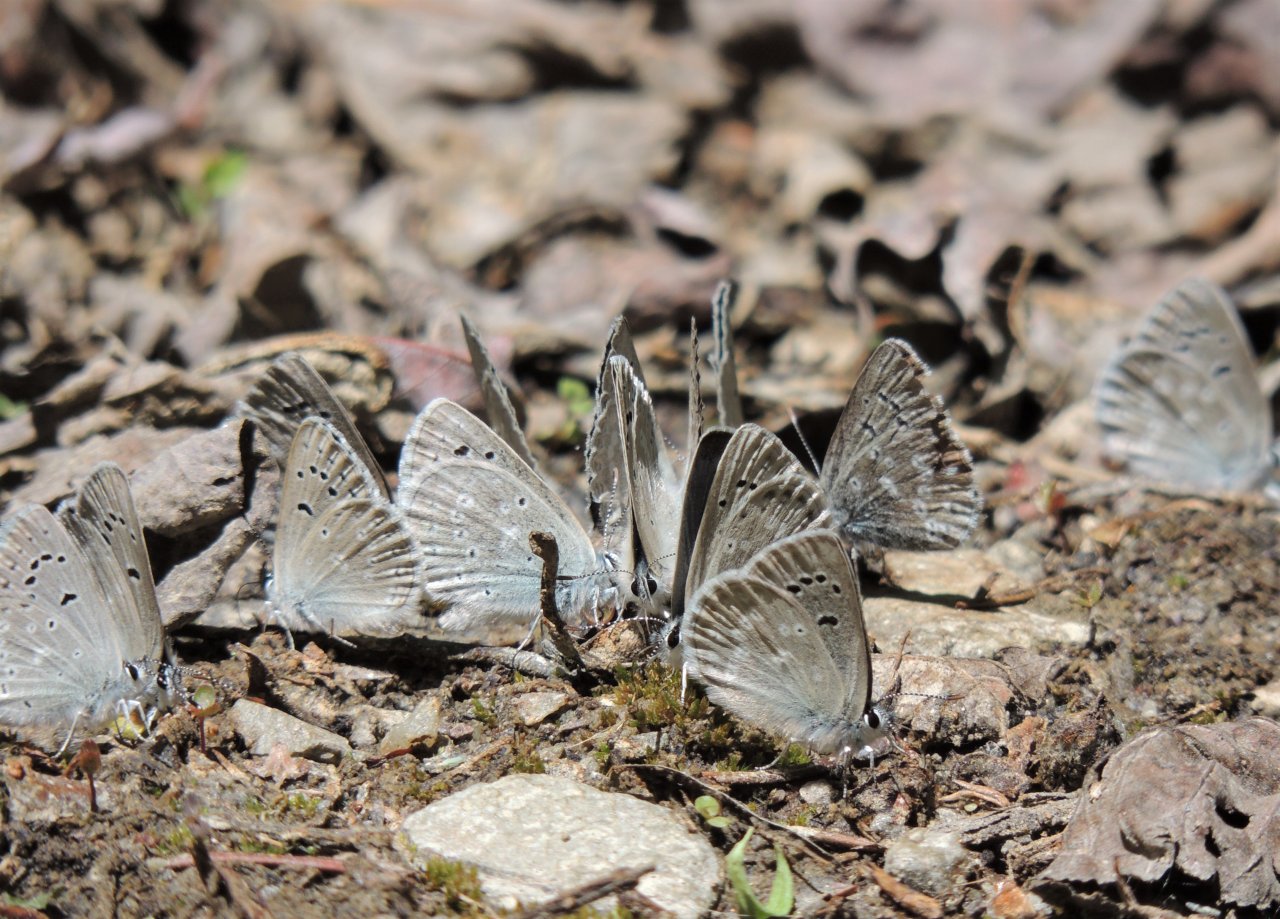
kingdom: Animalia
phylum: Arthropoda
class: Insecta
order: Lepidoptera
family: Lycaenidae
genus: Icaricia
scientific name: Icaricia icarioides
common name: Boisduval's Blue
